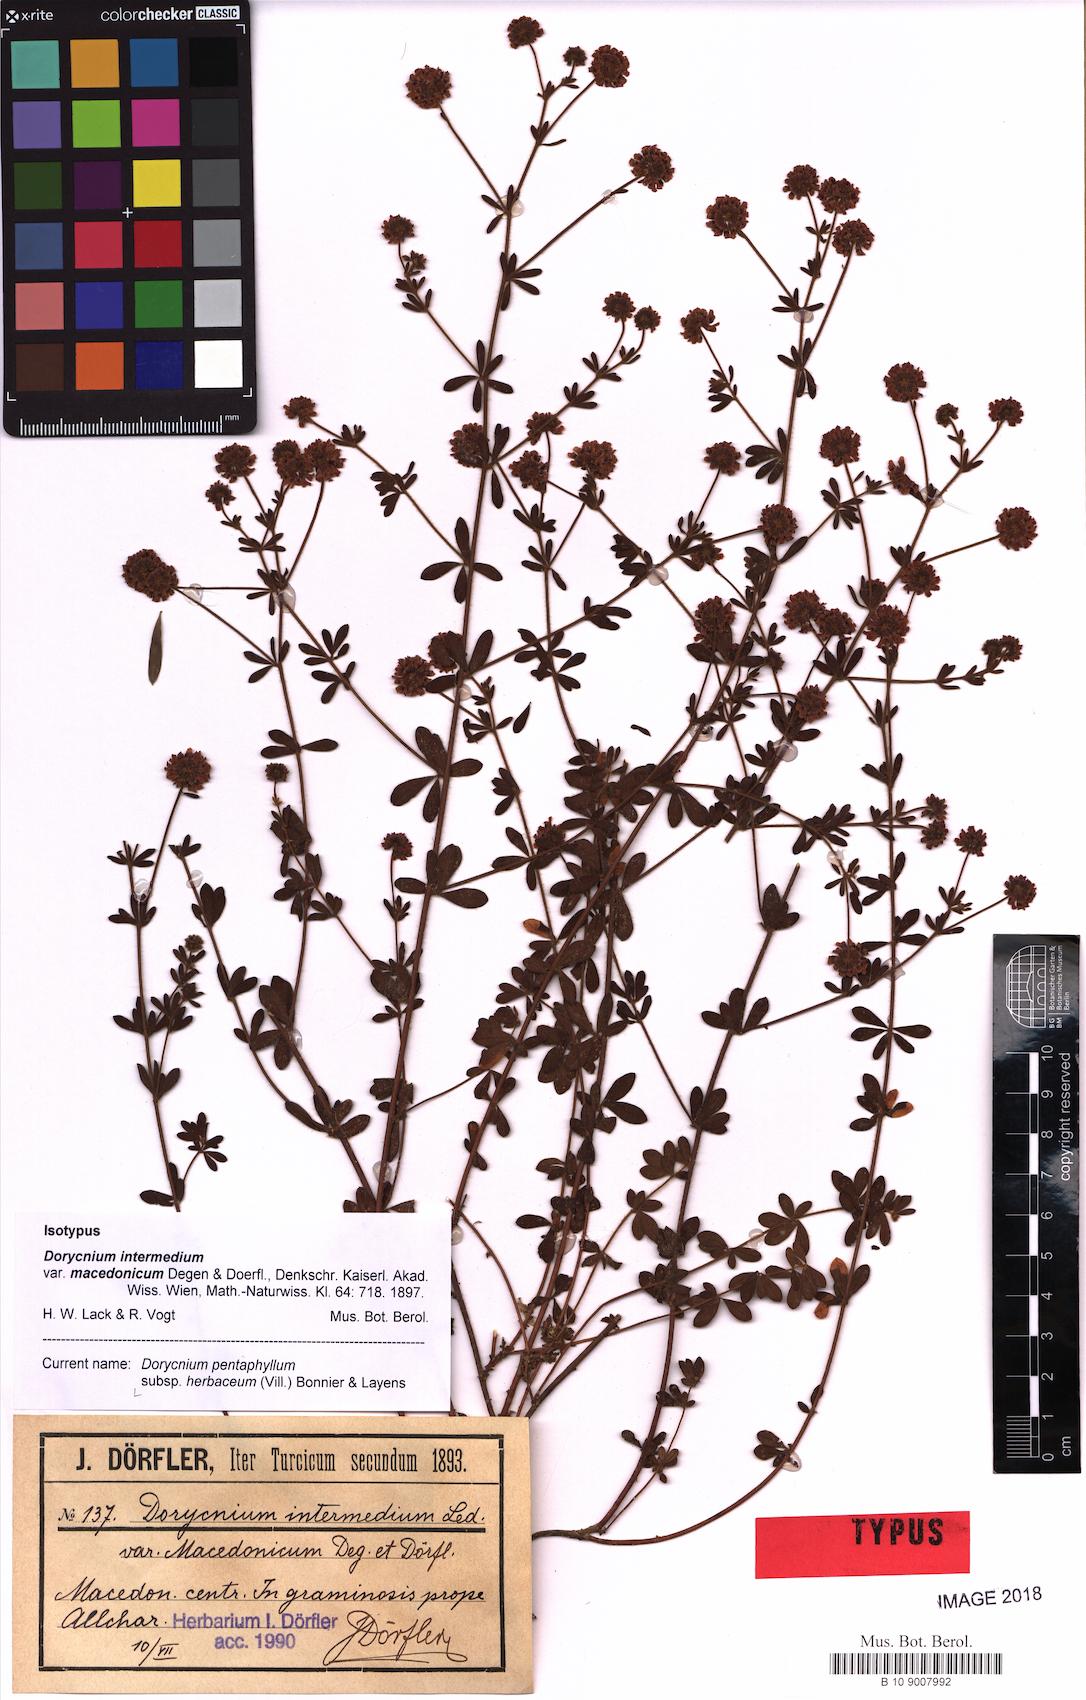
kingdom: Plantae
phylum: Tracheophyta
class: Magnoliopsida
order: Fabales
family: Fabaceae
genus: Lotus
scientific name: Lotus herbaceus
